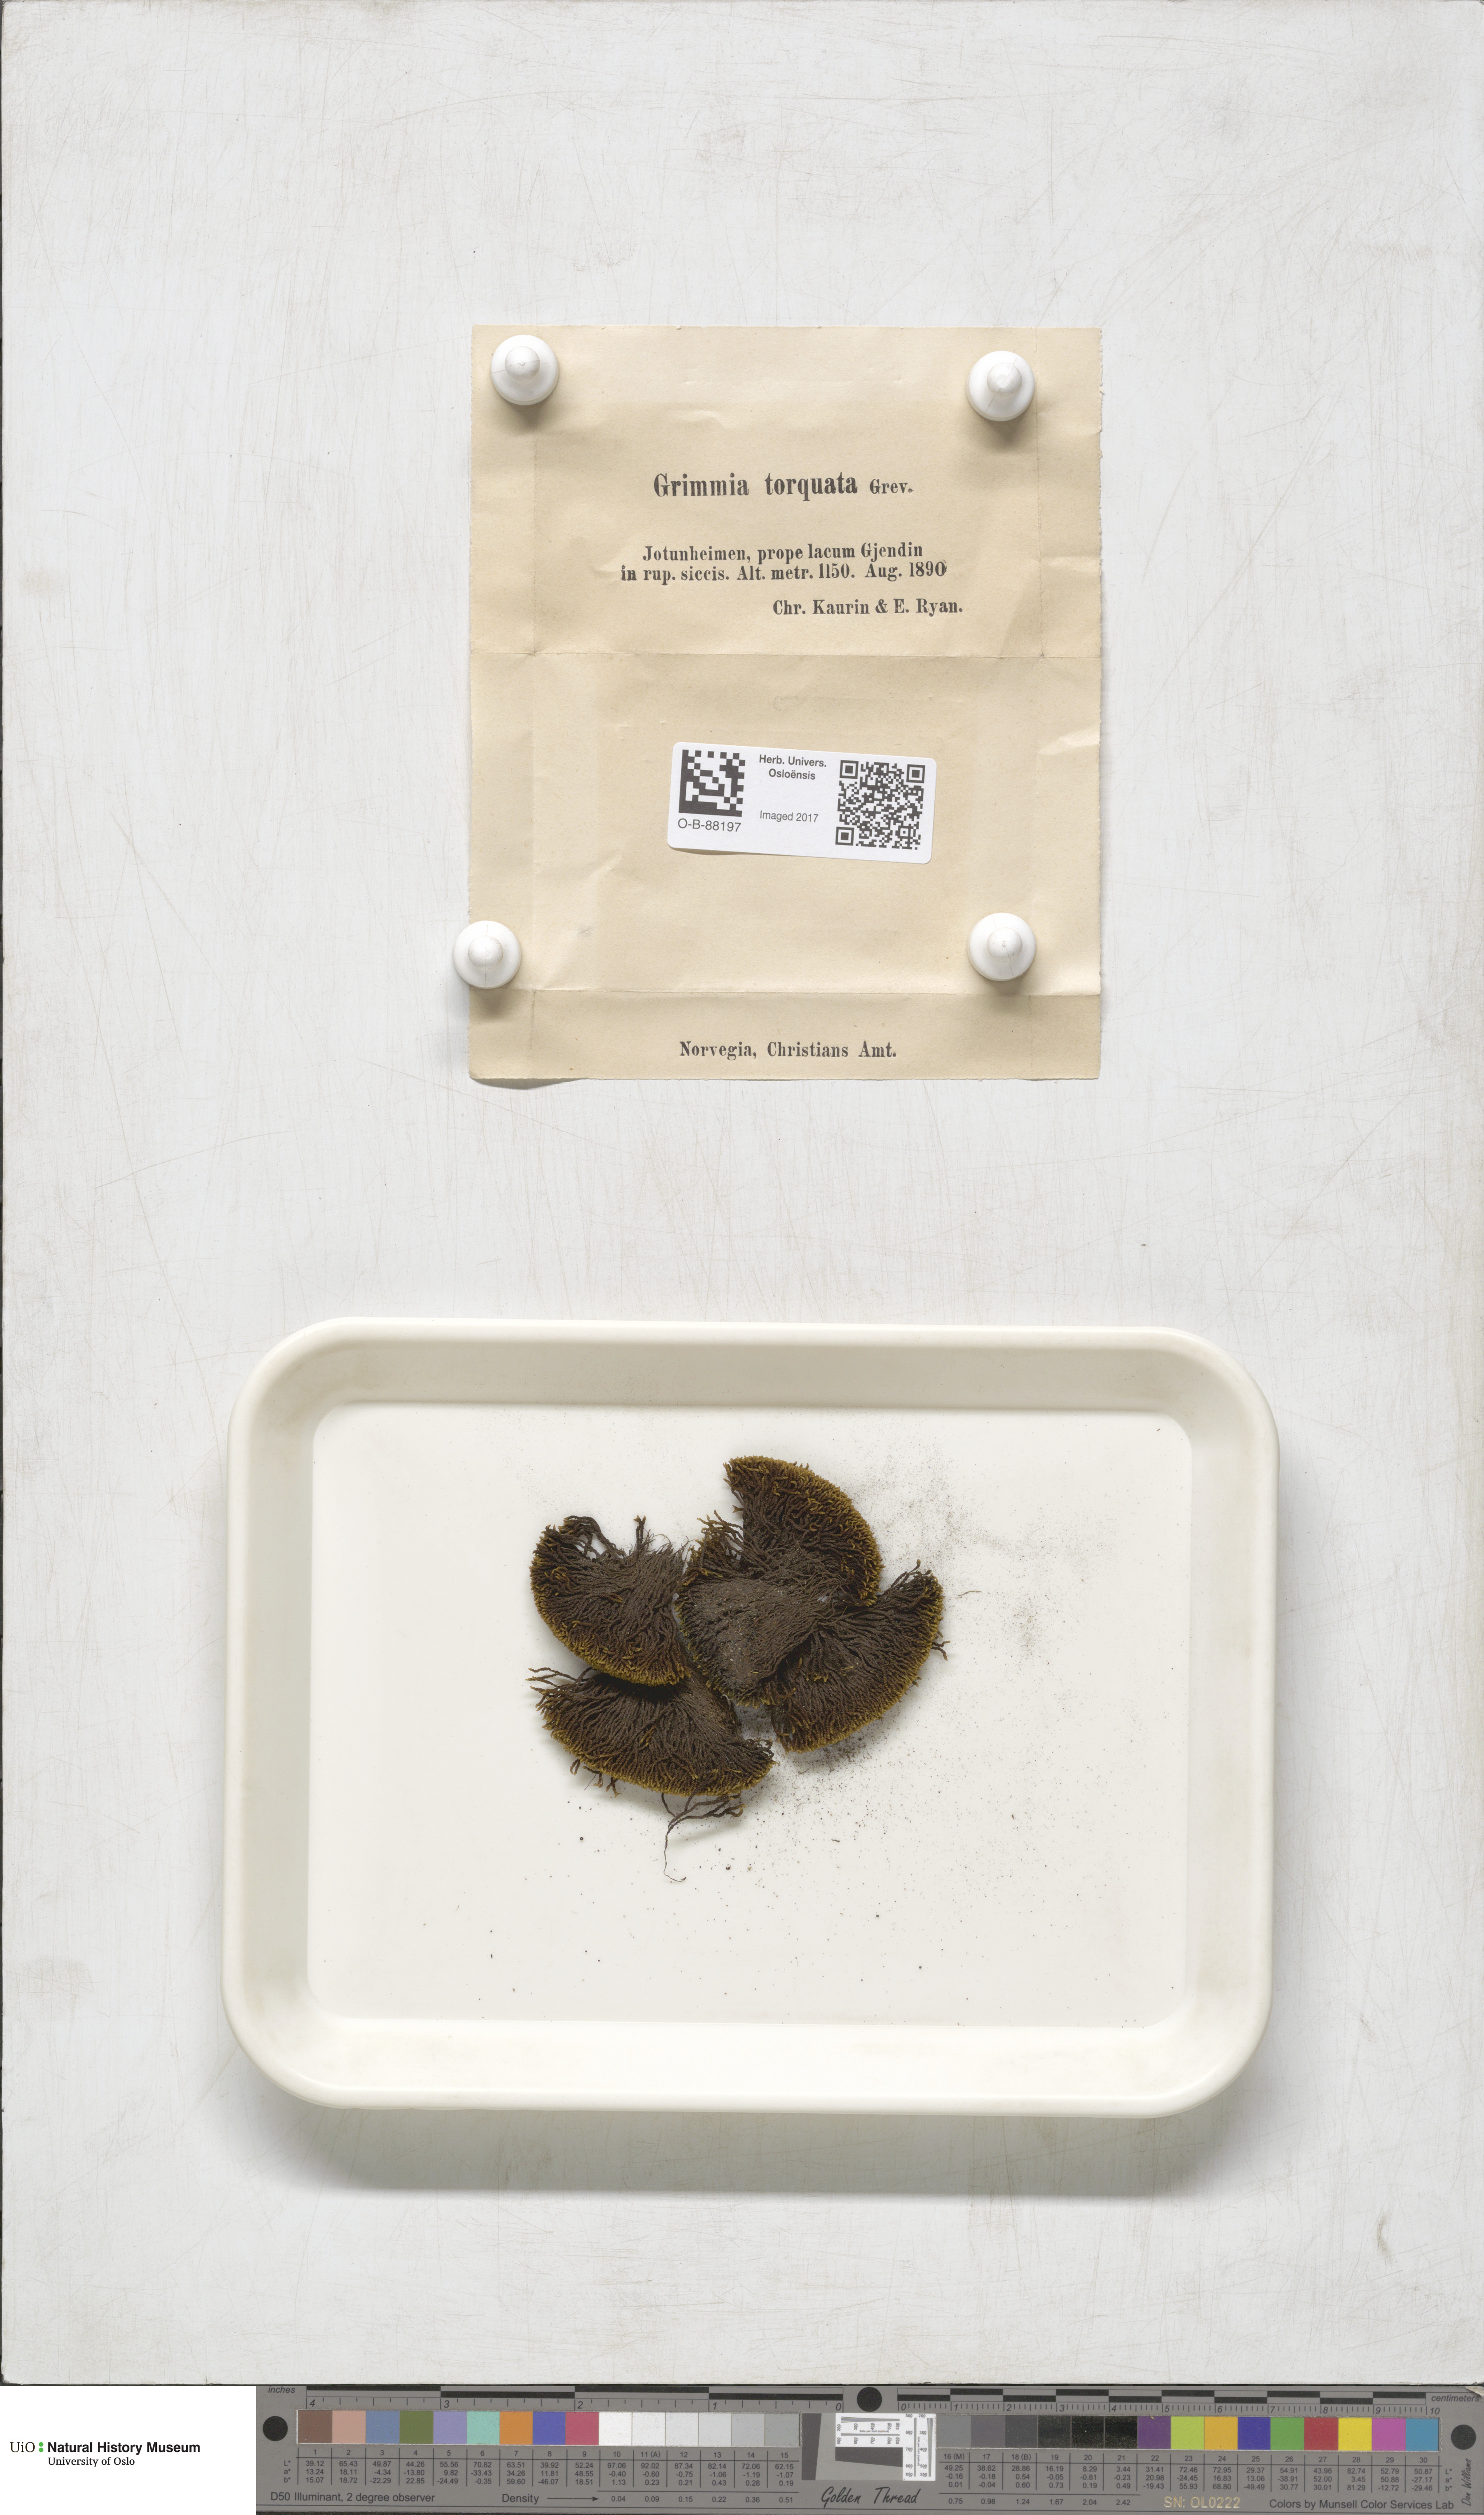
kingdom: Plantae
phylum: Bryophyta
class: Bryopsida
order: Grimmiales
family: Grimmiaceae
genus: Grimmia
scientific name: Grimmia torquata
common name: Twisted grimmia
